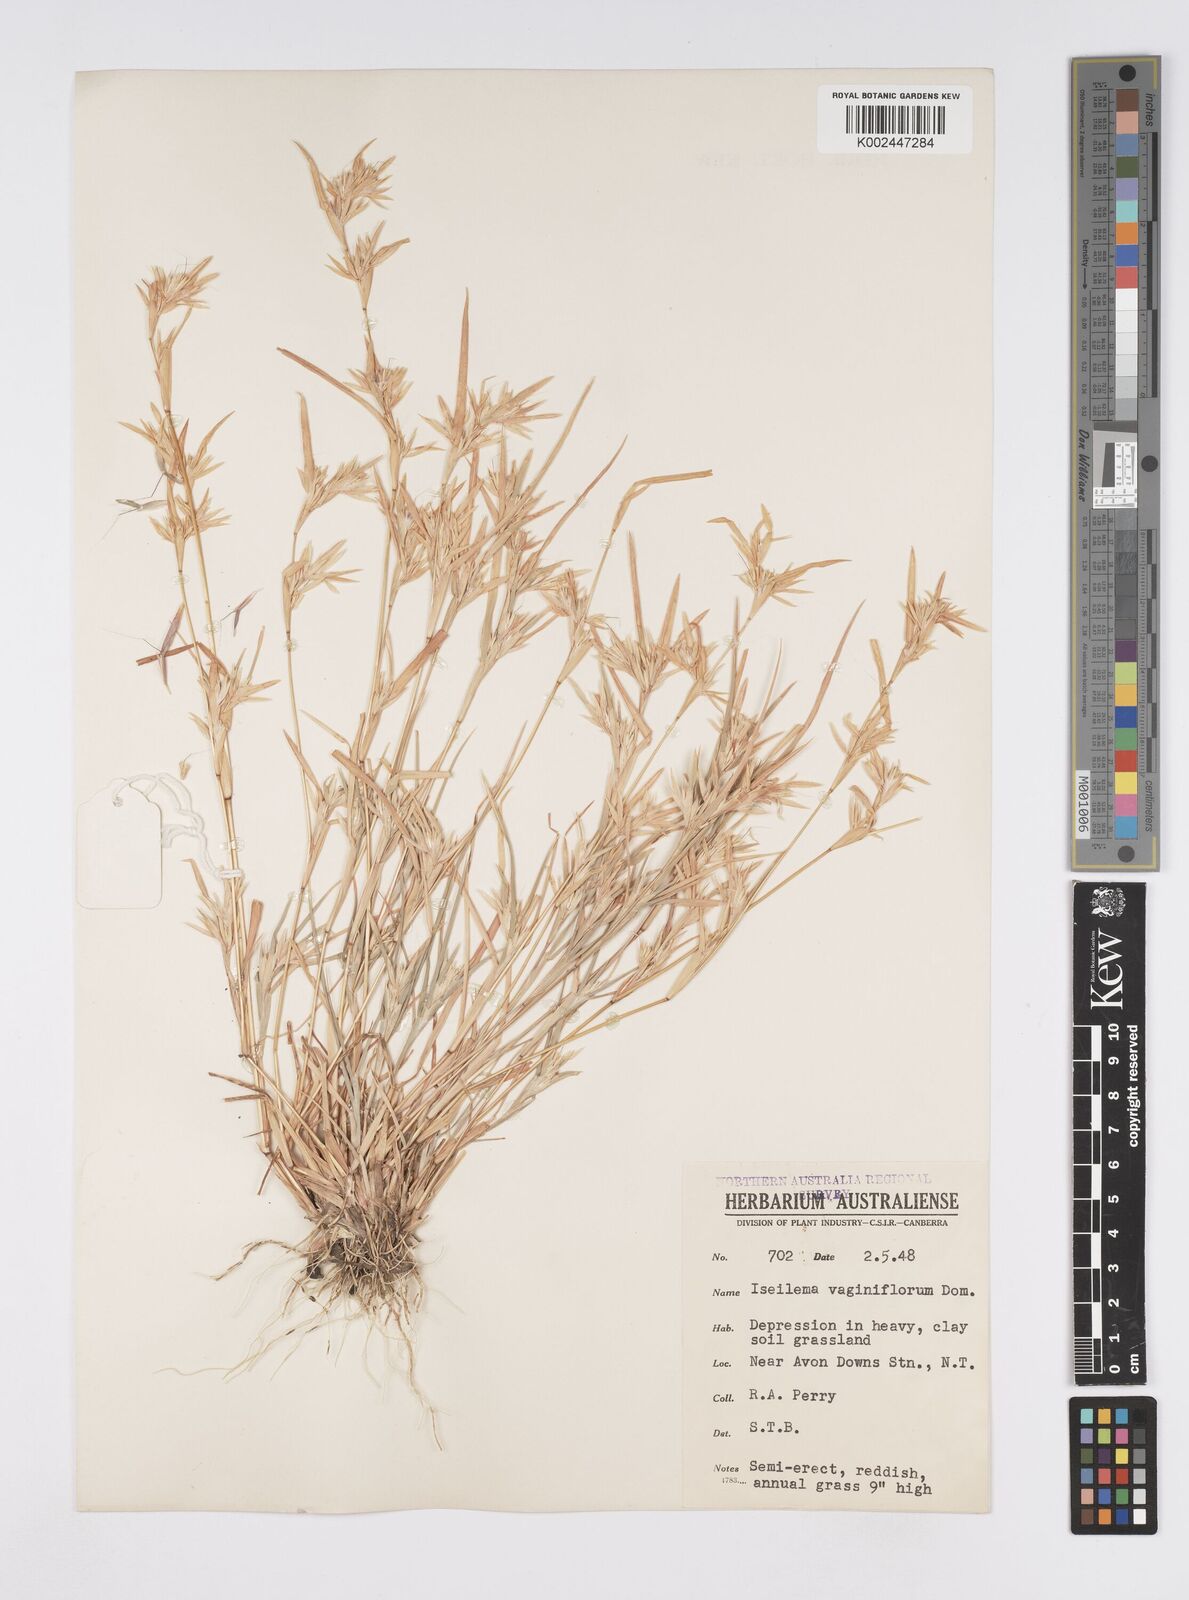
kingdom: Plantae
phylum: Tracheophyta
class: Liliopsida
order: Poales
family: Poaceae
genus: Iseilema
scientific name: Iseilema vaginiflorum
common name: Red flinders grass
